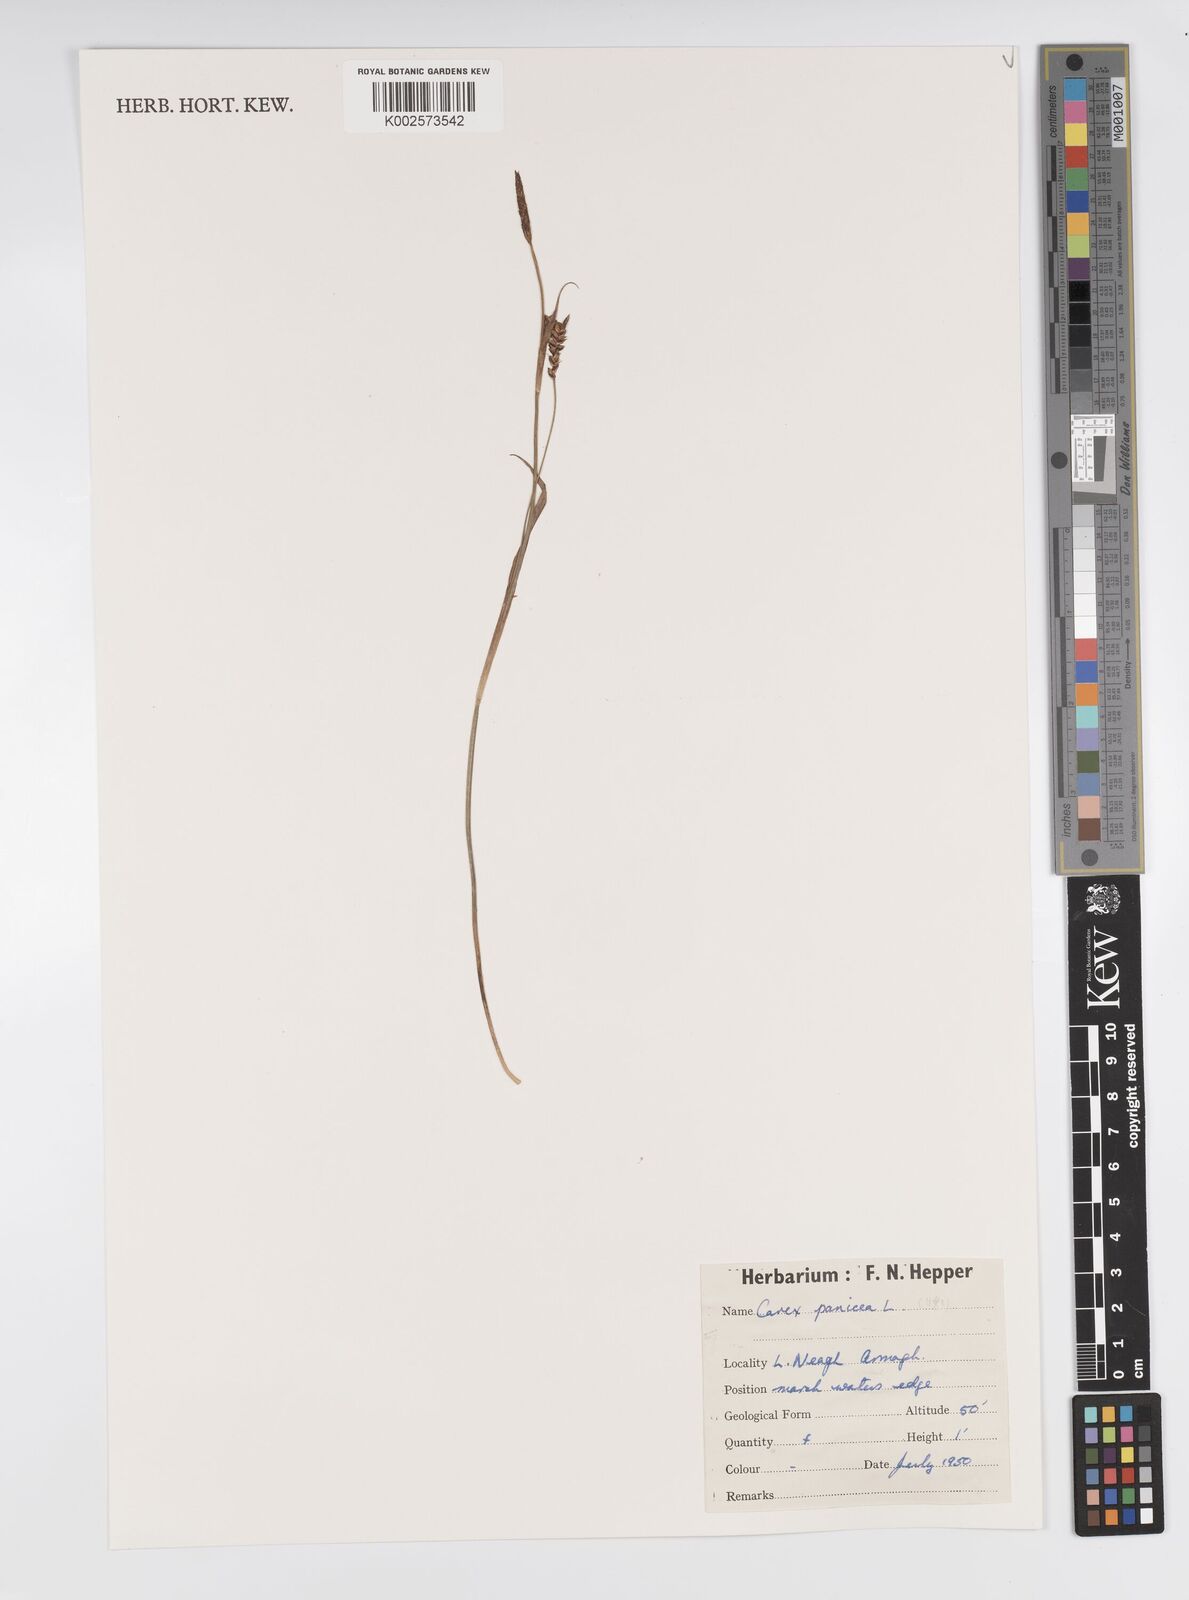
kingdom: Plantae
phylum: Tracheophyta
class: Liliopsida
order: Poales
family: Cyperaceae
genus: Carex
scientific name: Carex panicea
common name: Carnation sedge
